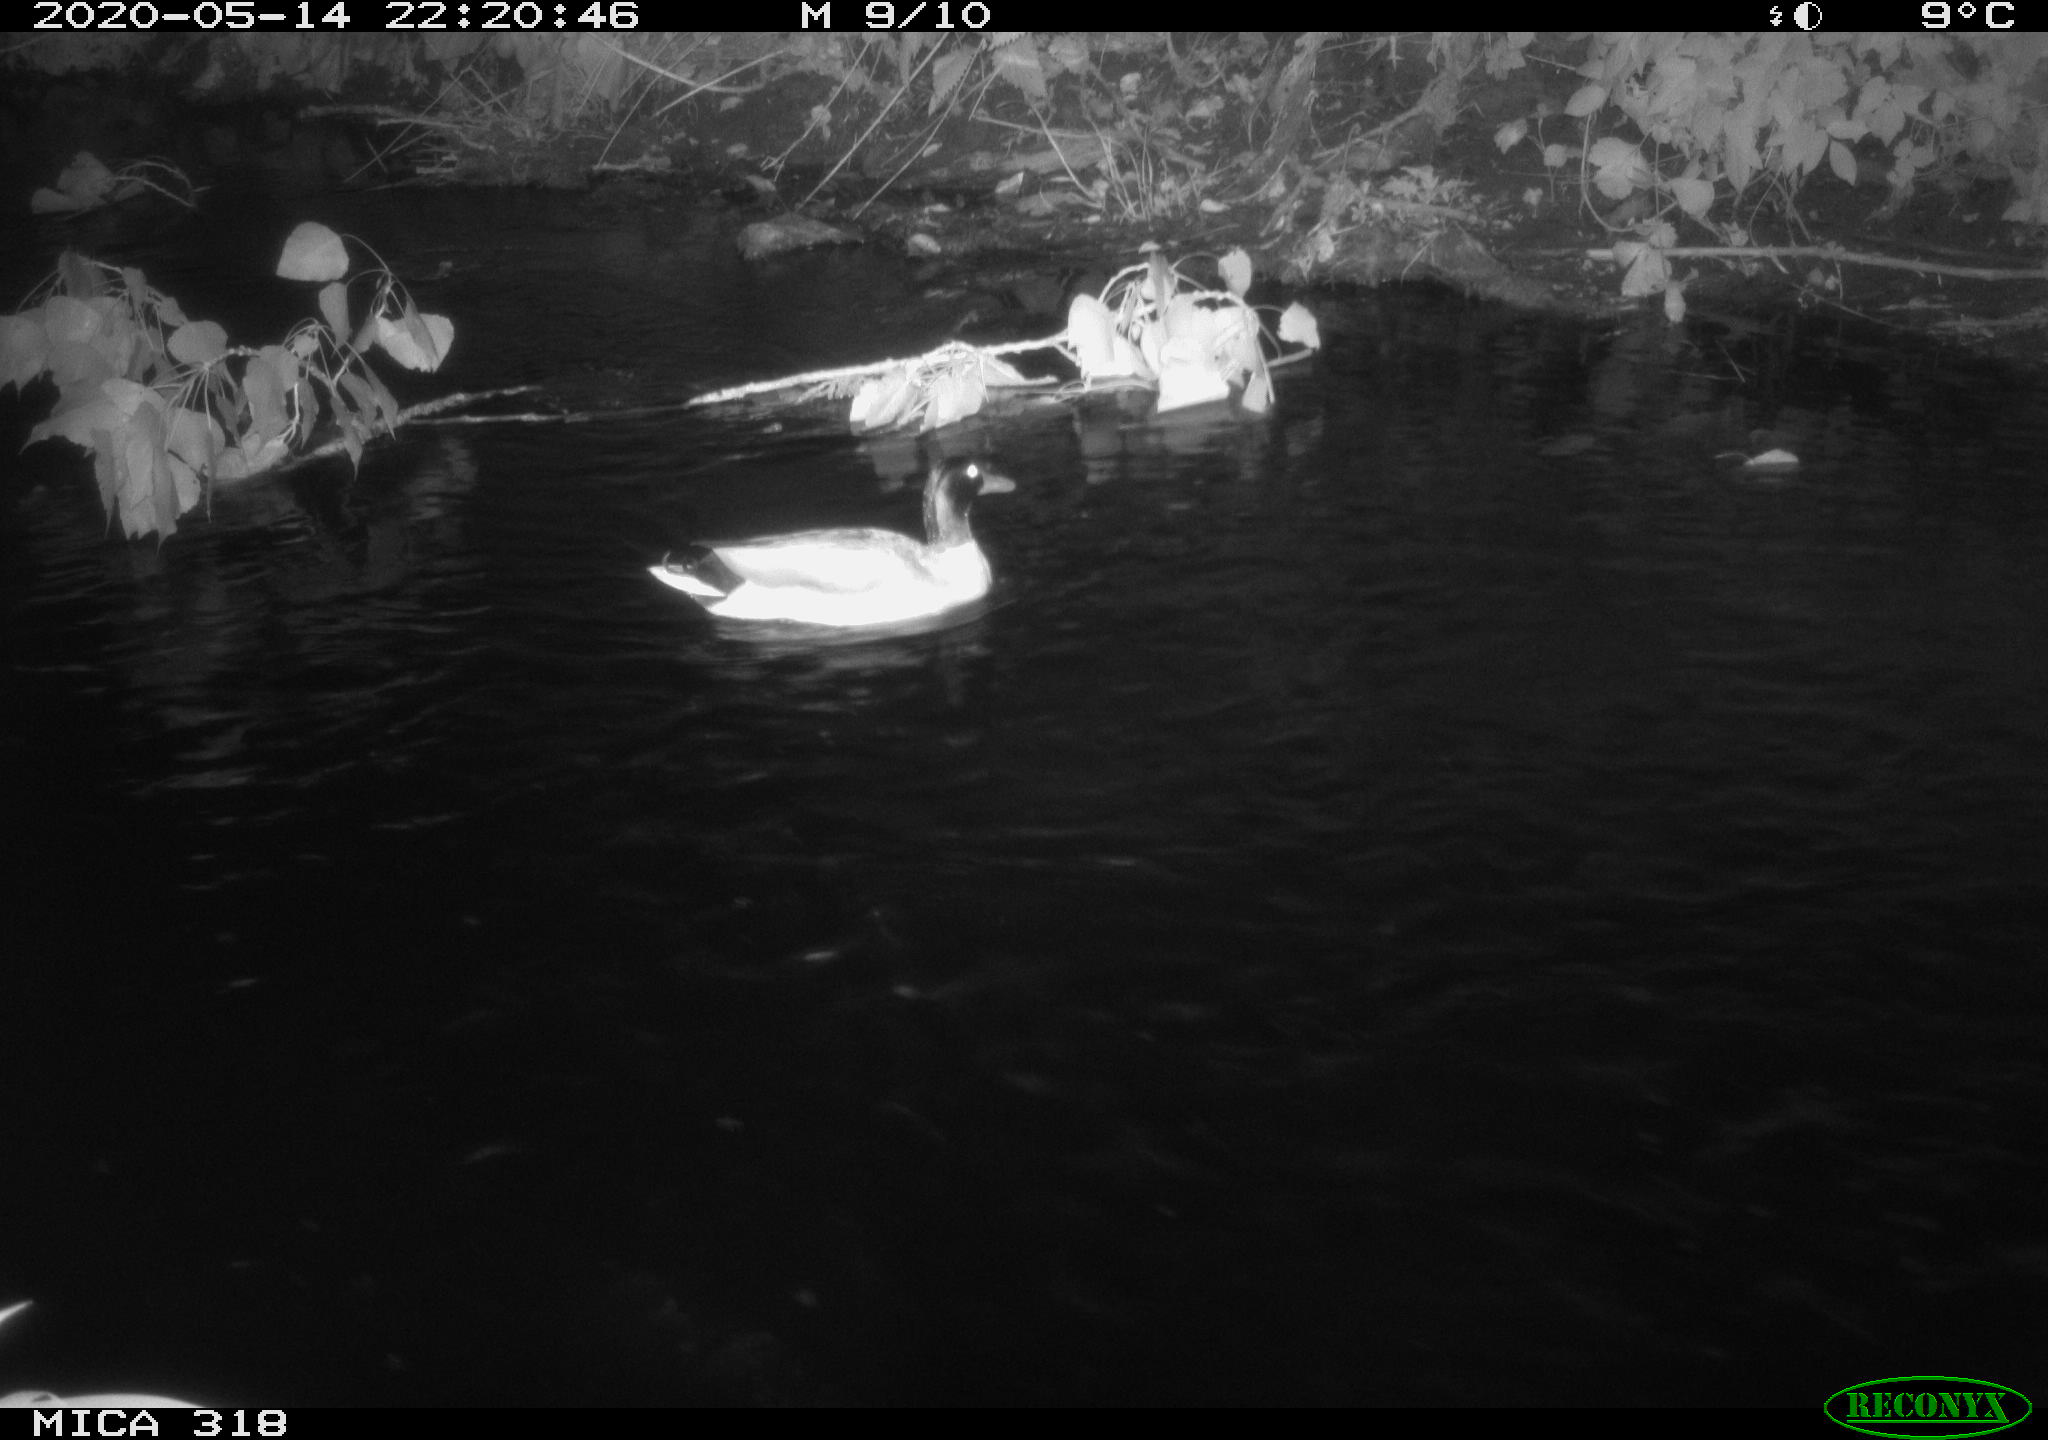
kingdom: Animalia
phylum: Chordata
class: Aves
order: Anseriformes
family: Anatidae
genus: Anas
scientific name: Anas platyrhynchos
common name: Mallard
